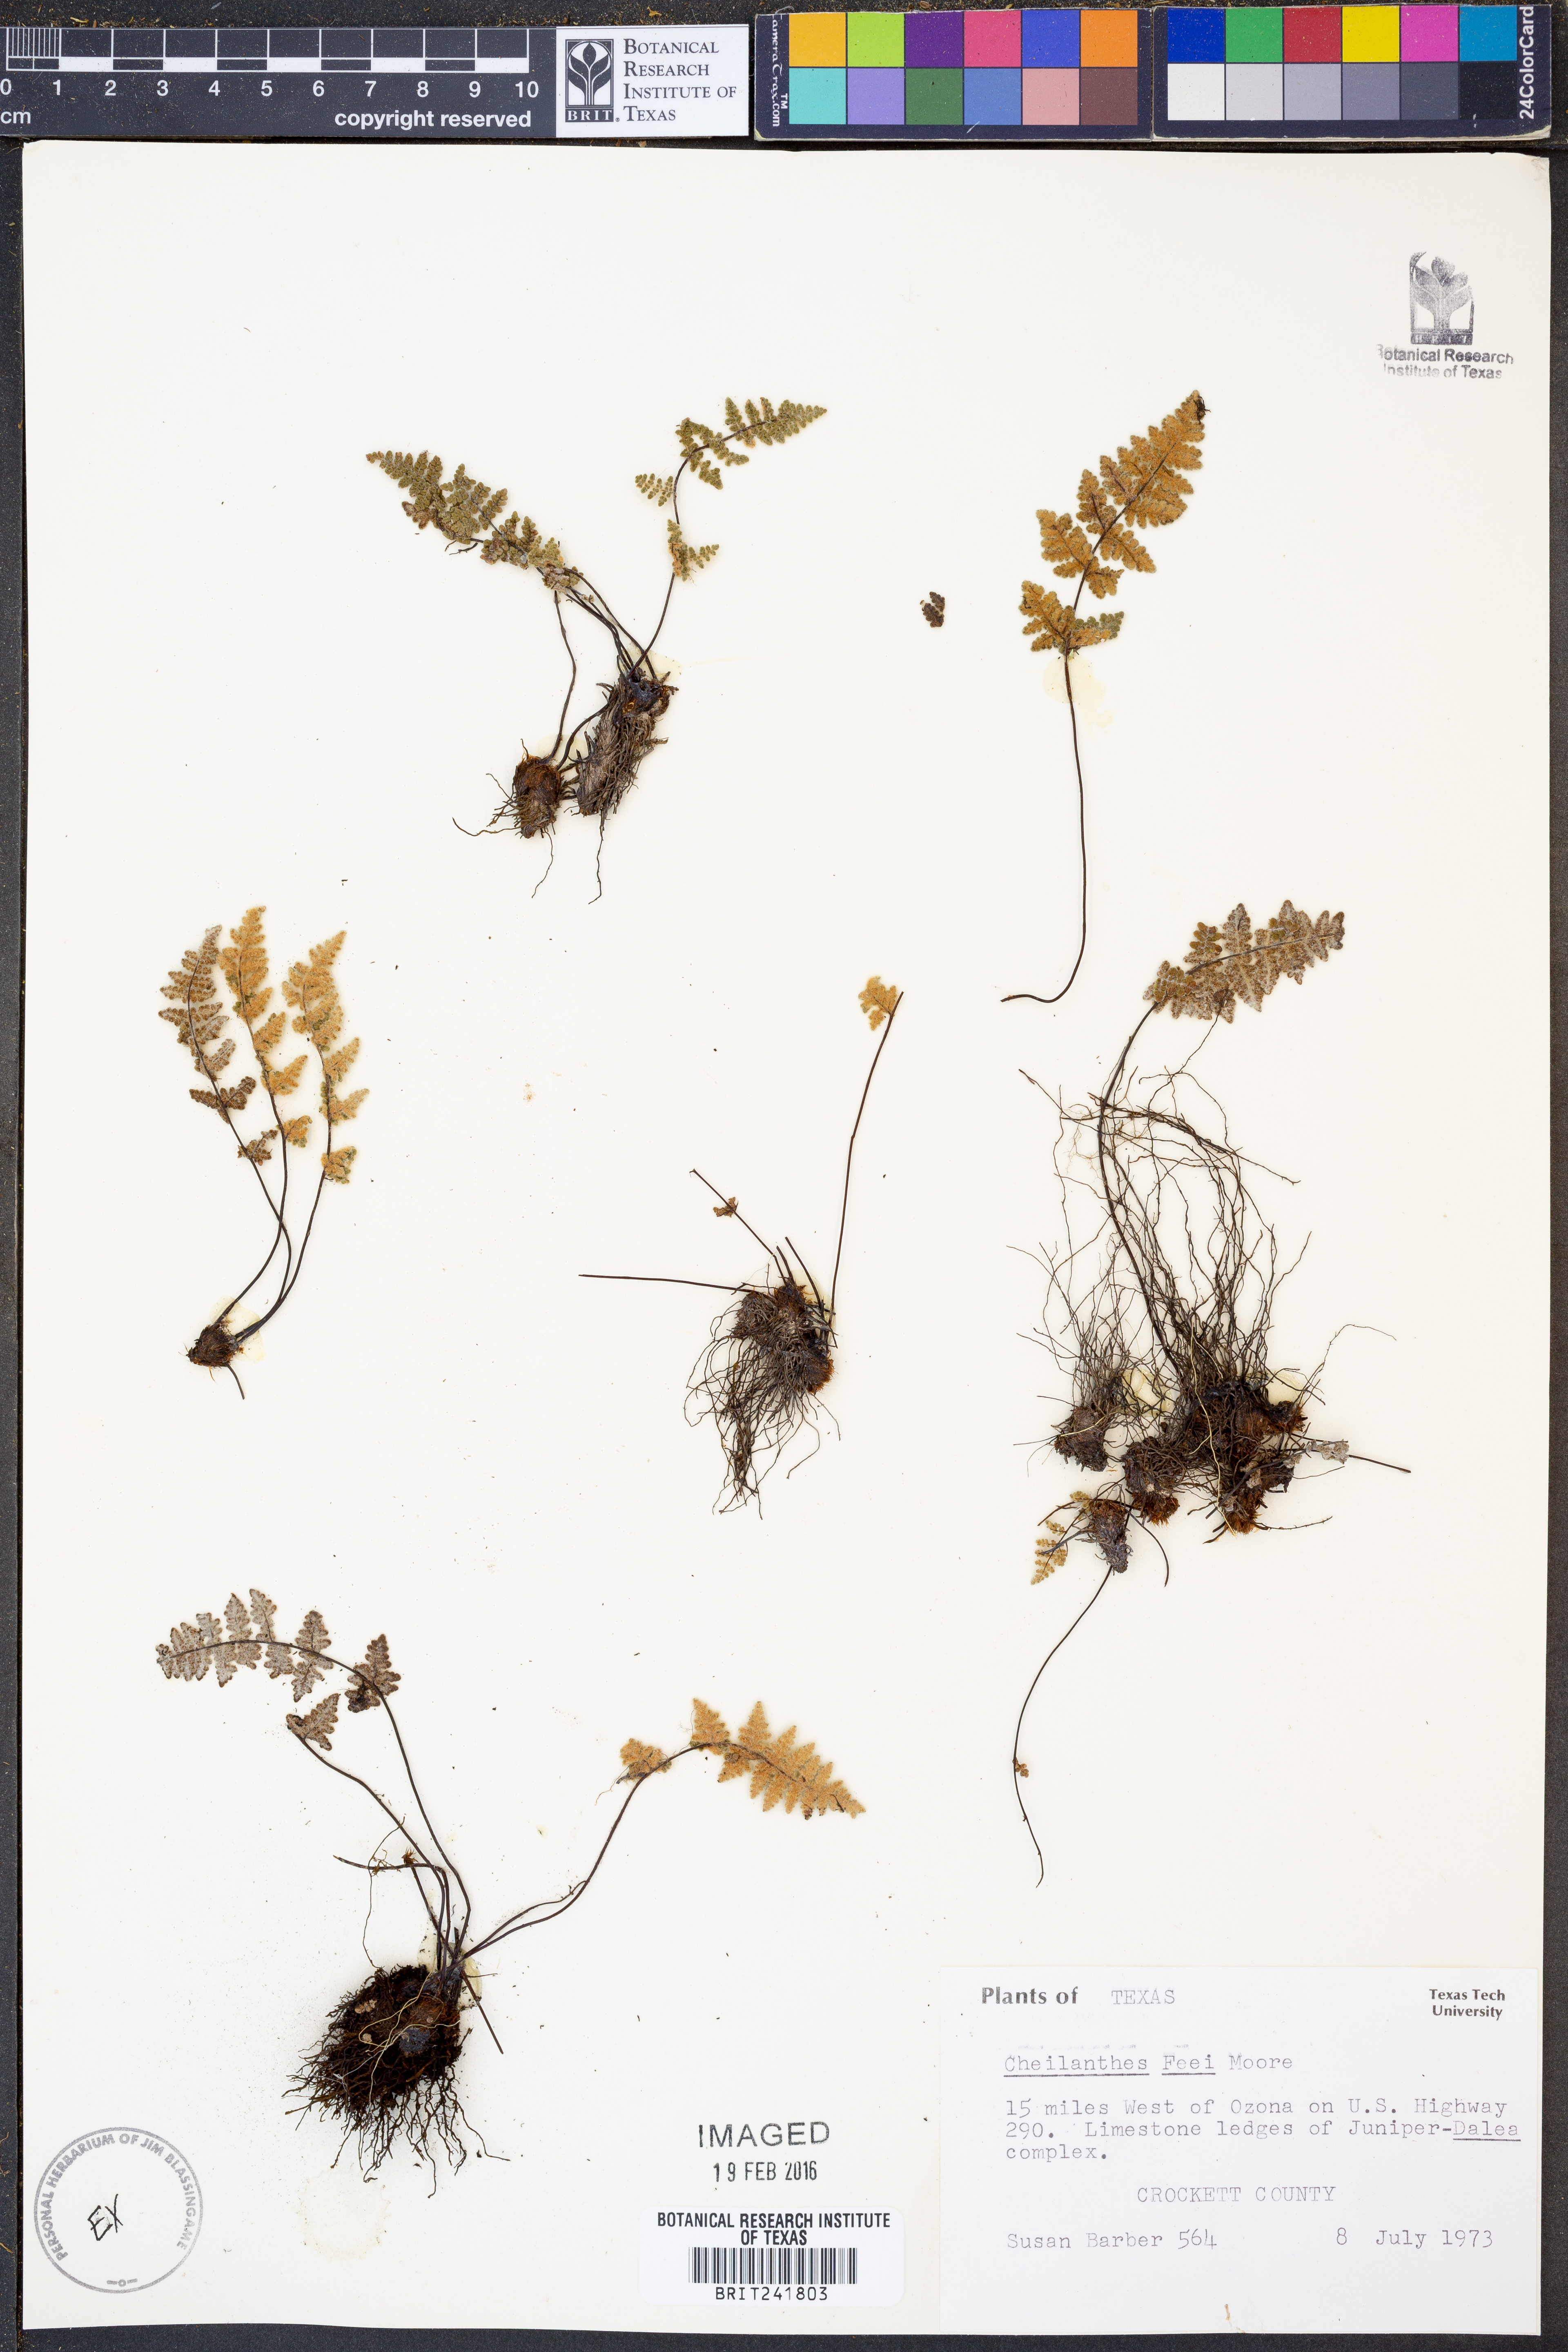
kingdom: Plantae
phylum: Tracheophyta
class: Polypodiopsida
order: Polypodiales
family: Pteridaceae
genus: Myriopteris
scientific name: Myriopteris gracilis
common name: Fee's lip fern
